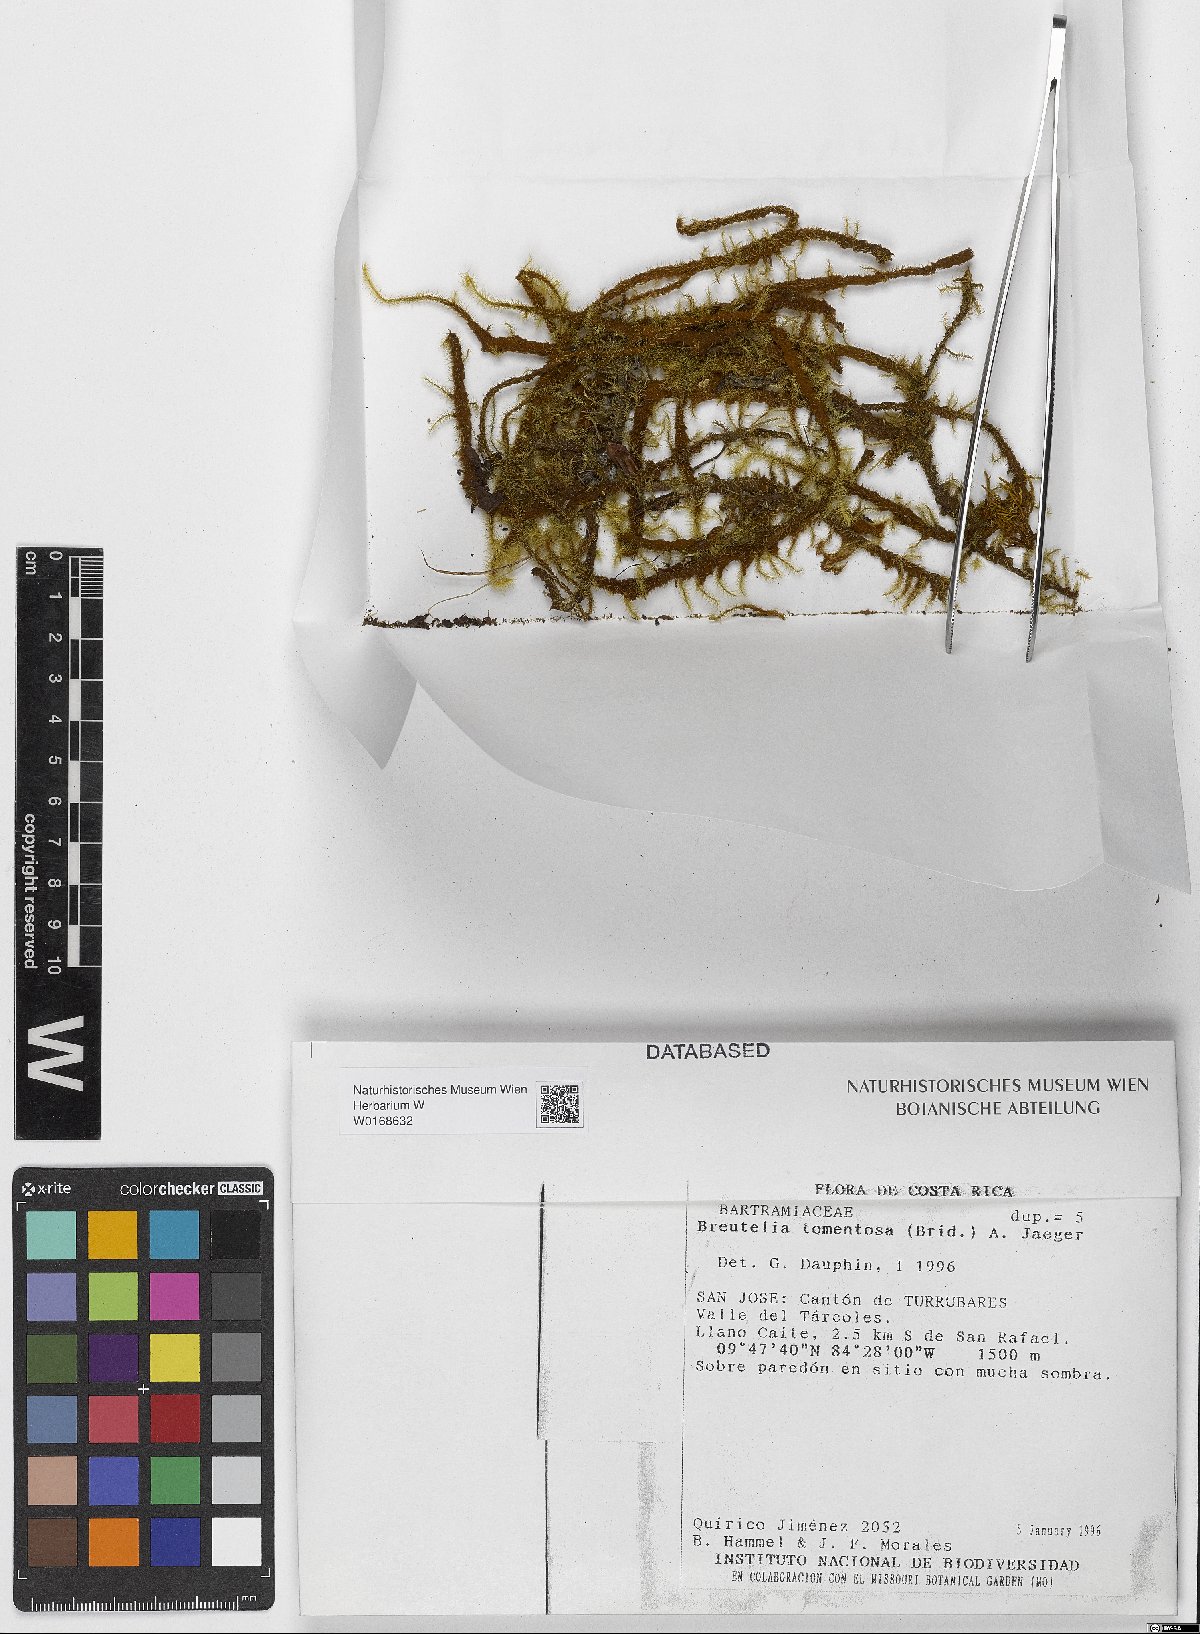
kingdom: Plantae
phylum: Bryophyta
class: Bryopsida
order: Bartramiales
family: Bartramiaceae
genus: Breutelia
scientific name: Breutelia tomentosa
